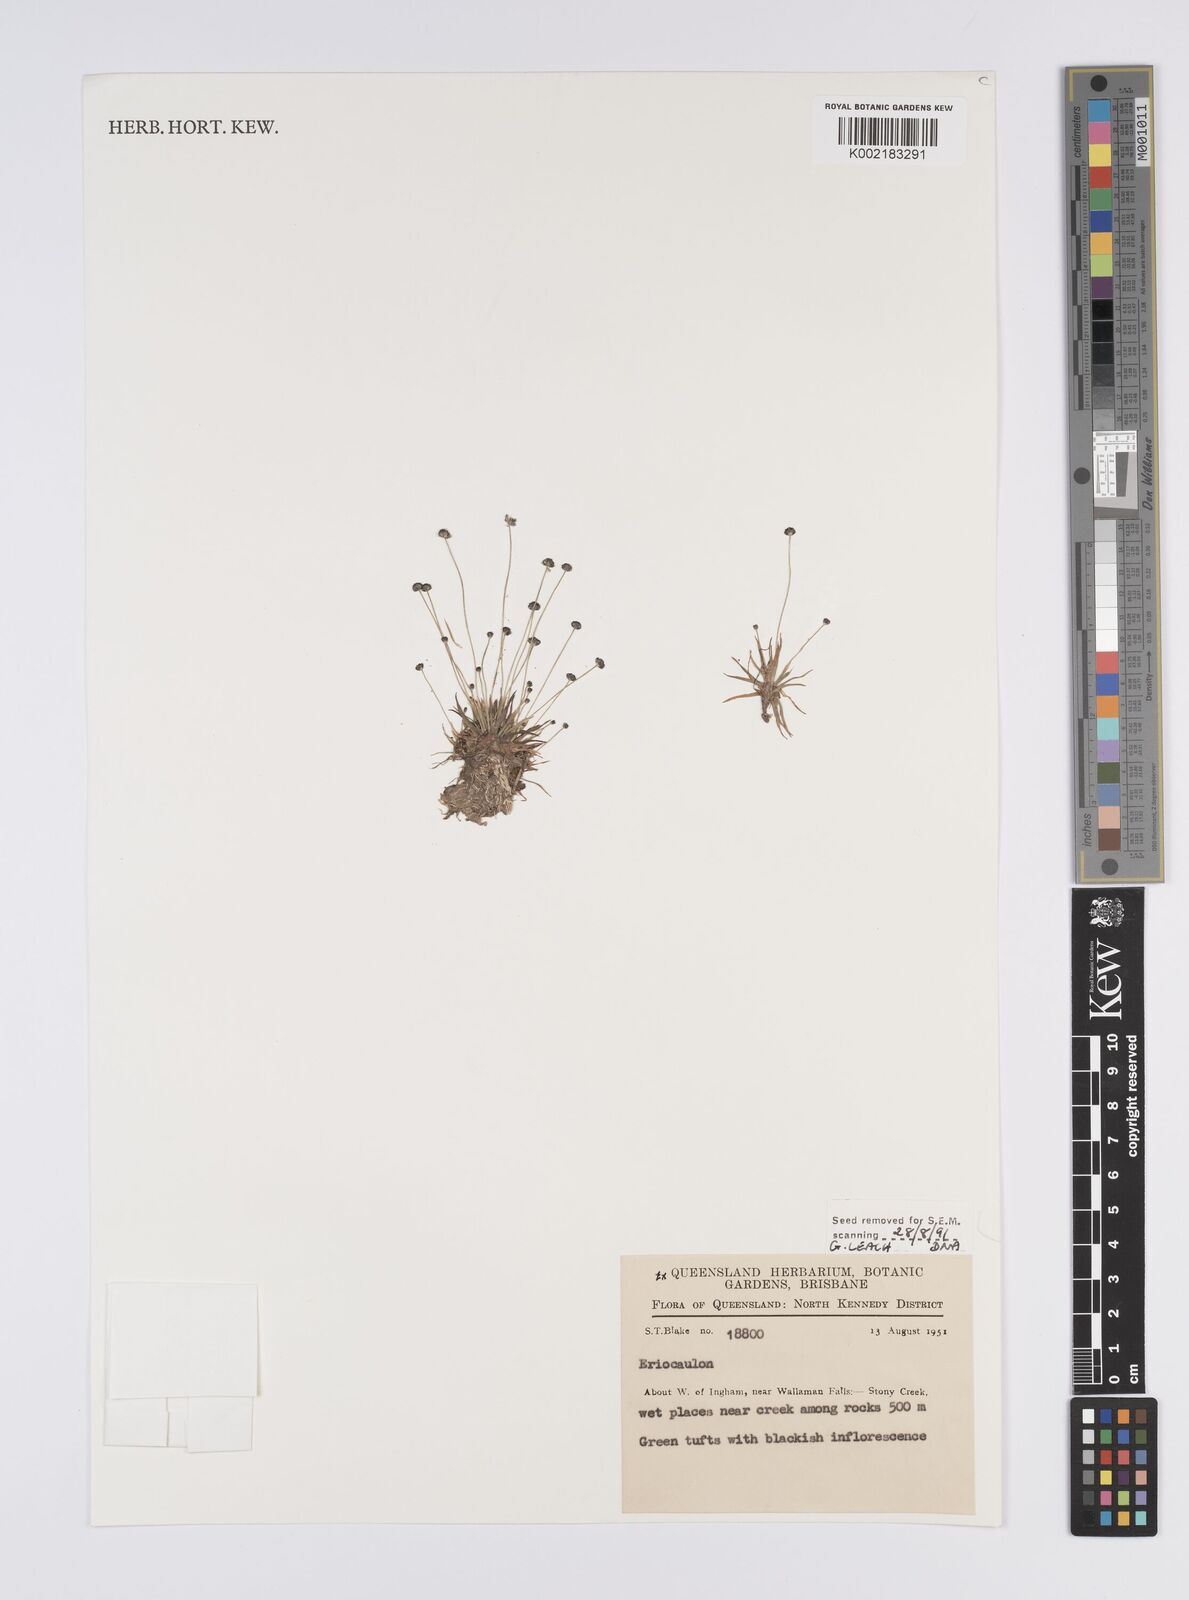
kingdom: Plantae
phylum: Tracheophyta
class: Liliopsida
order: Poales
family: Eriocaulaceae
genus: Eriocaulon
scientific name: Eriocaulon
